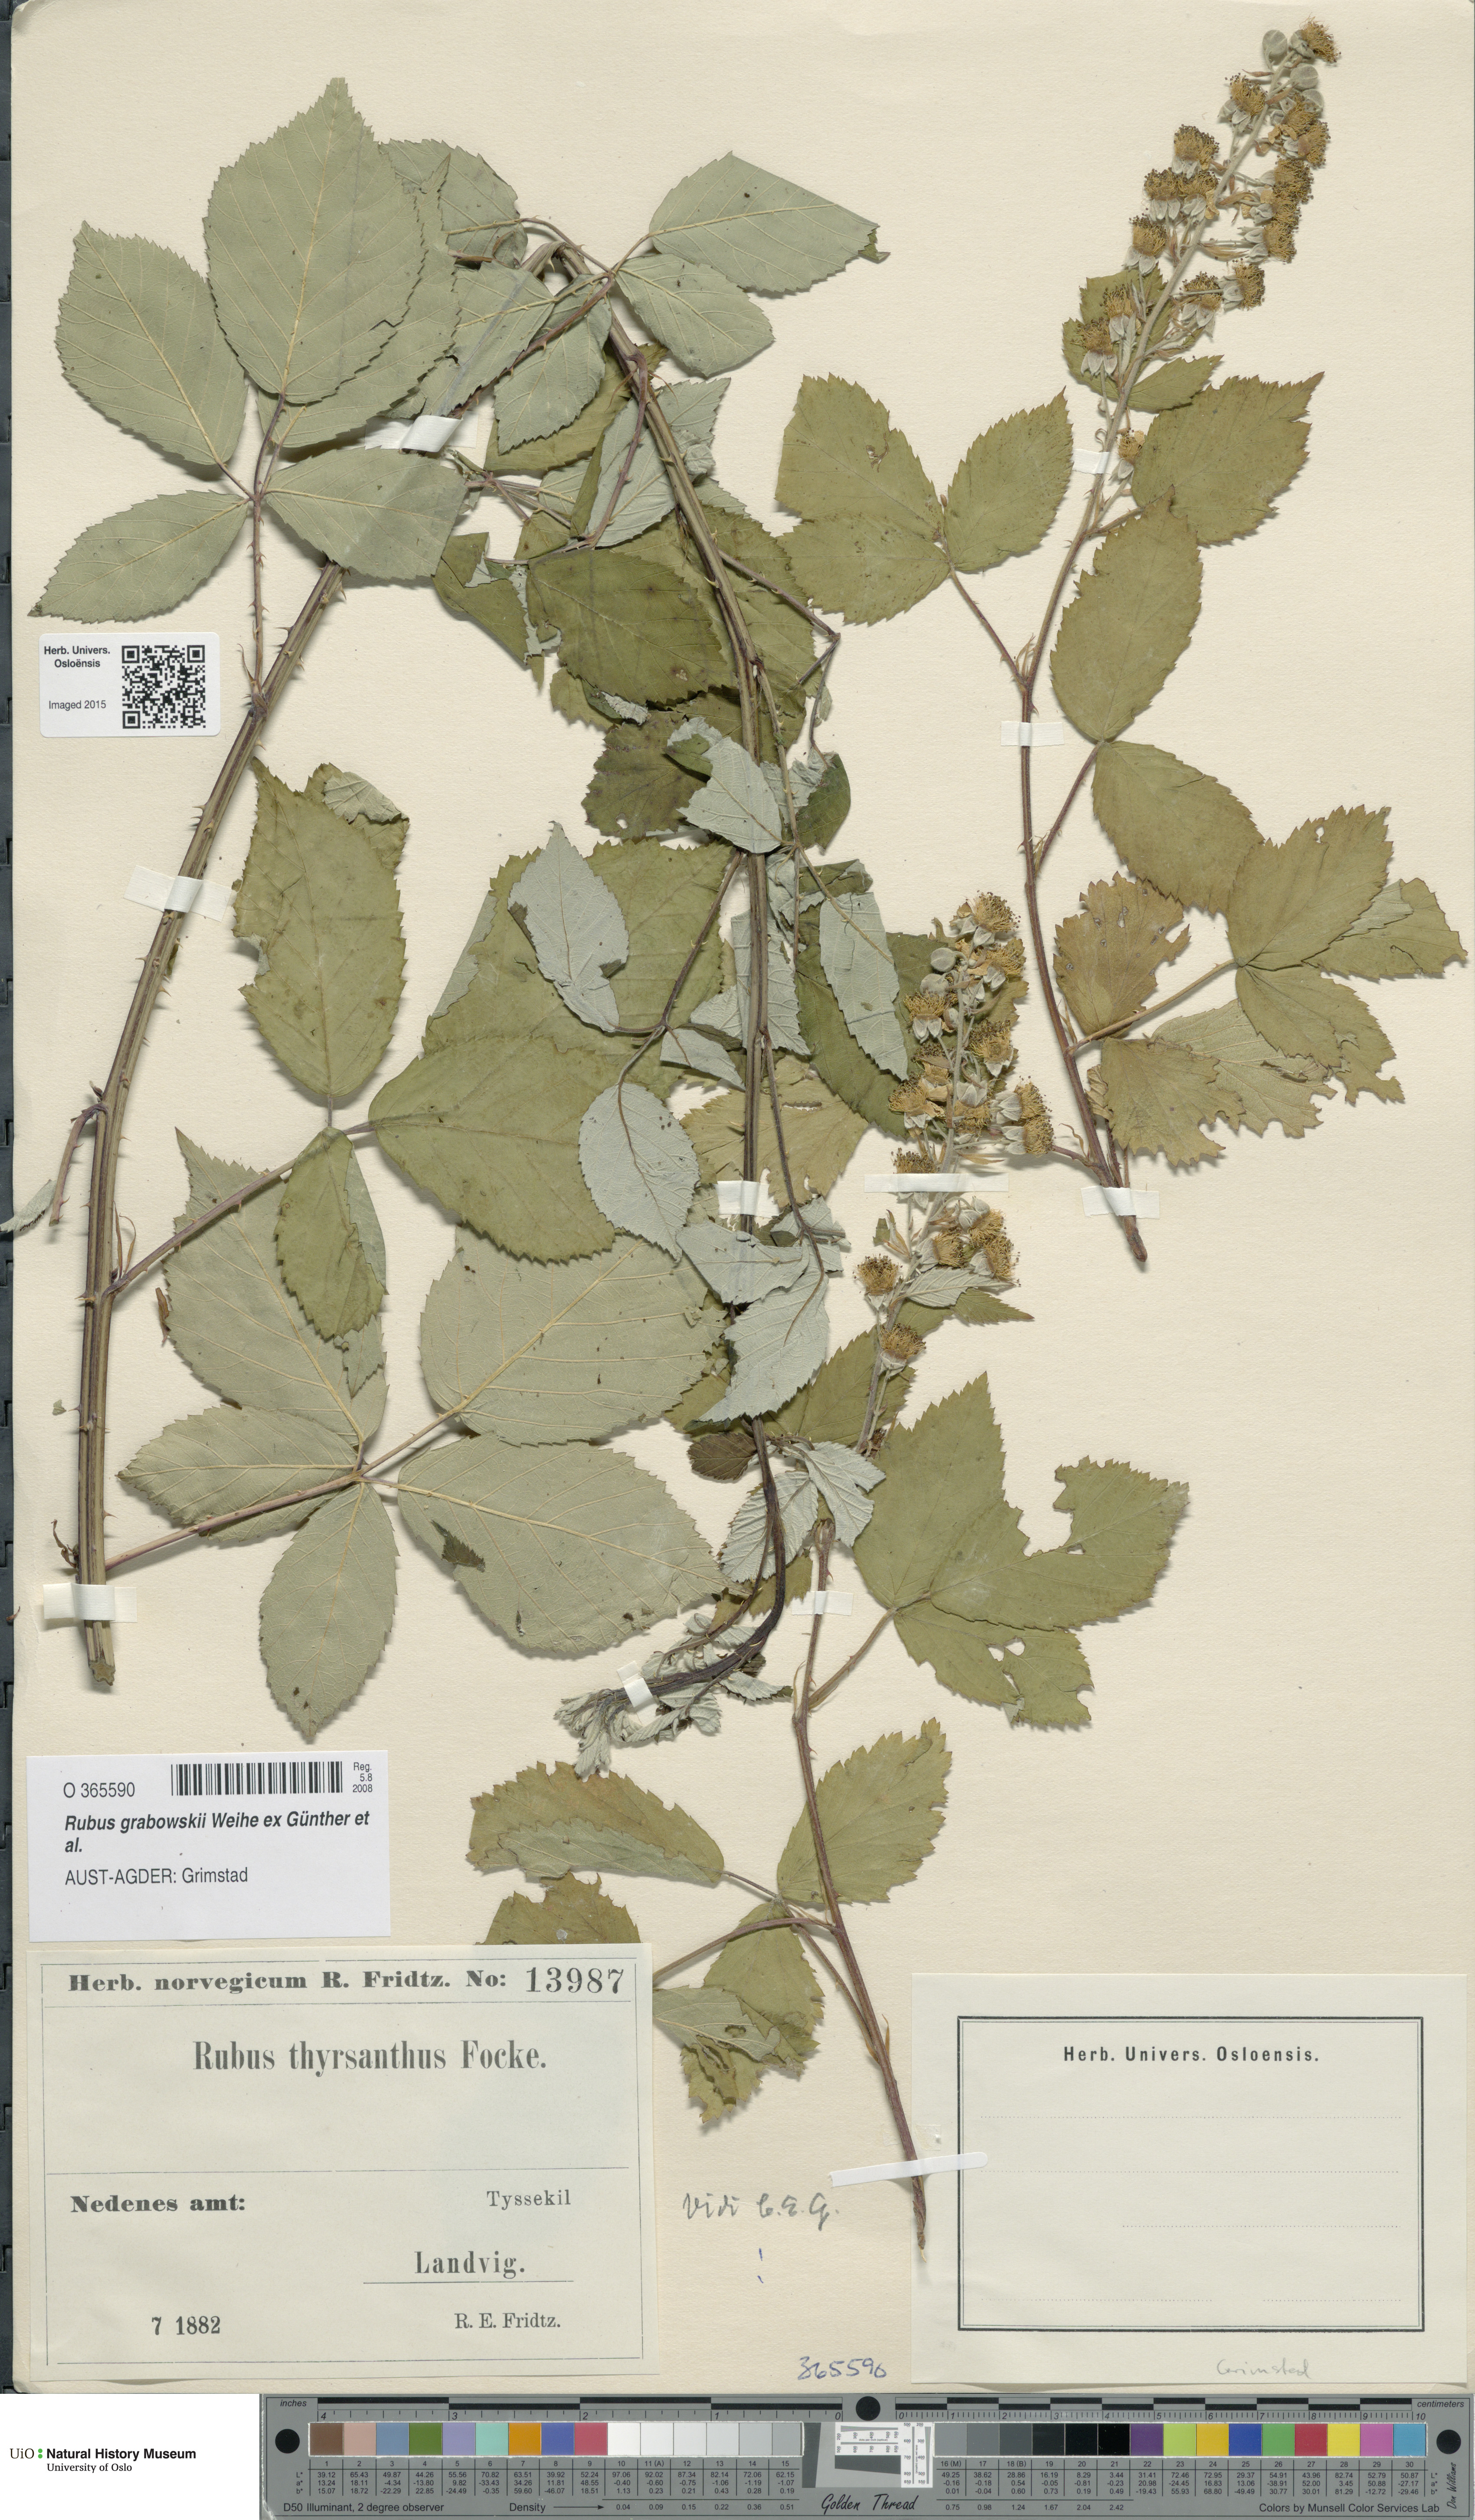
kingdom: Plantae
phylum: Tracheophyta
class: Magnoliopsida
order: Rosales
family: Rosaceae
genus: Rubus
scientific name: Rubus grabowskii
